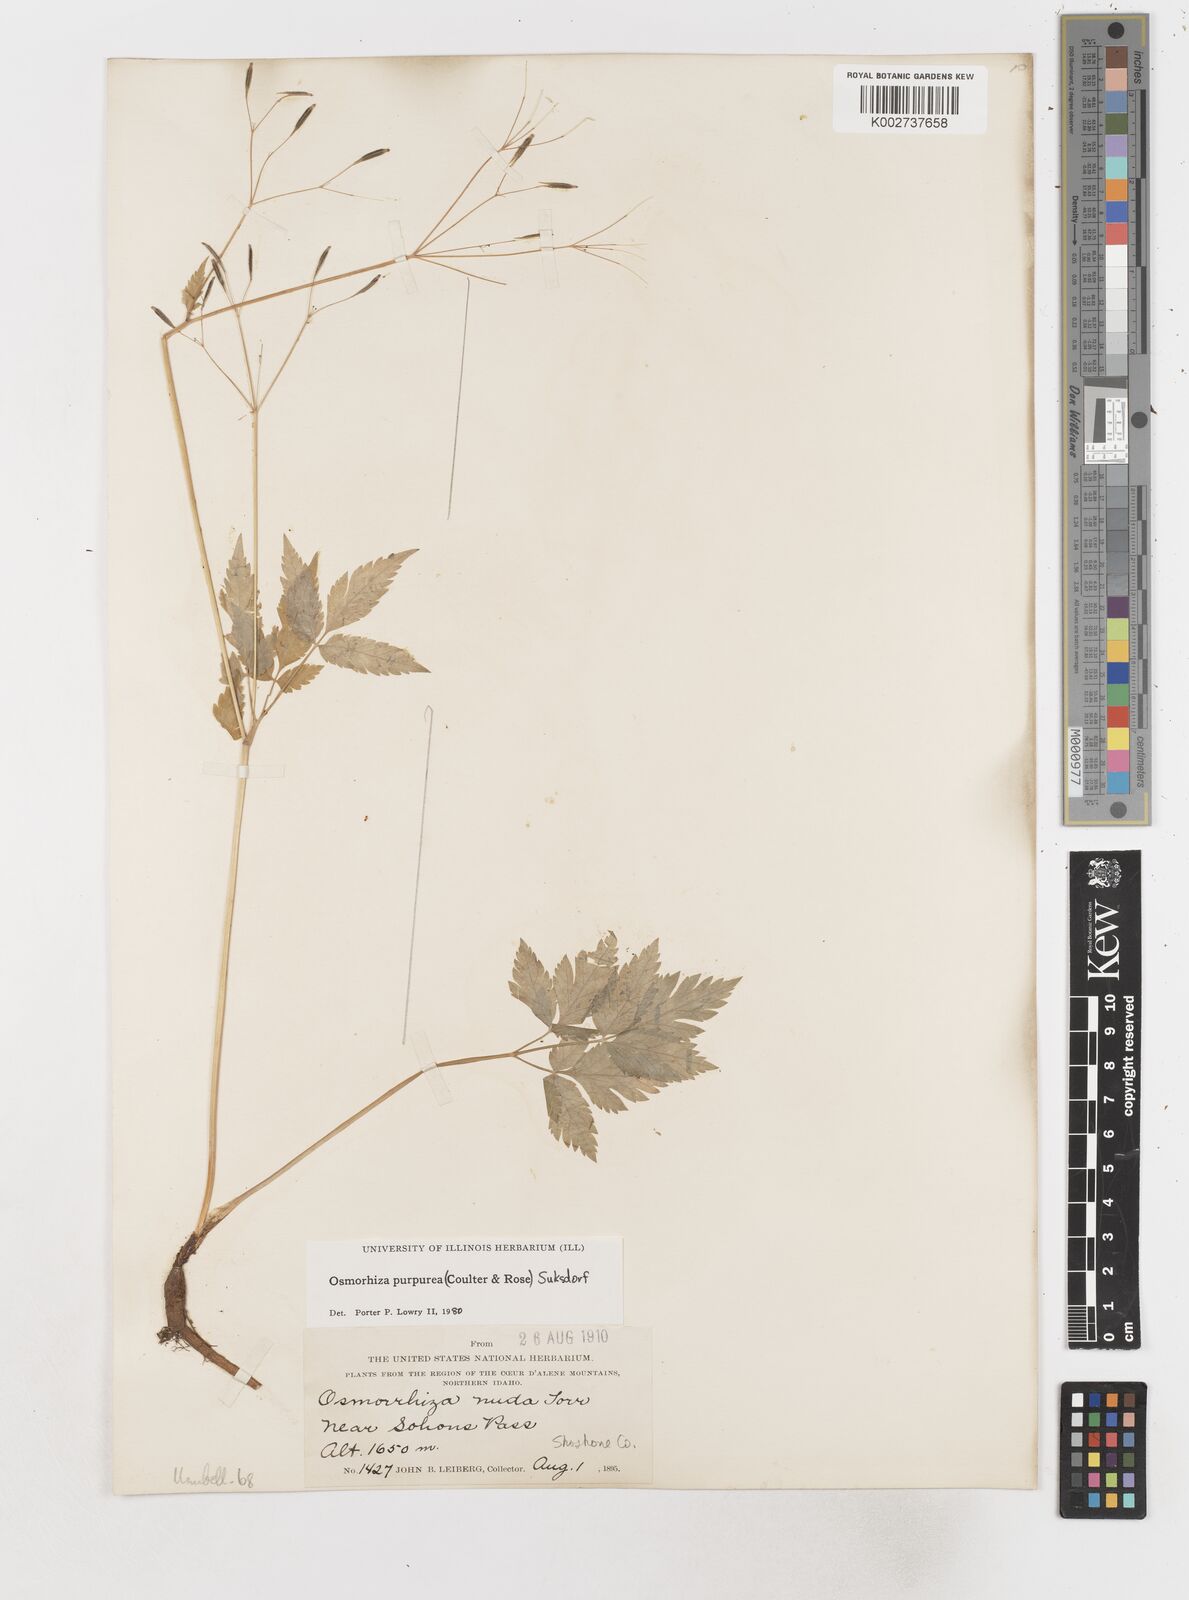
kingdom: Plantae
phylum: Tracheophyta
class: Magnoliopsida
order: Apiales
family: Apiaceae
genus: Osmorhiza
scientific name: Osmorhiza purpurea
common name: Purple sweet cicely
